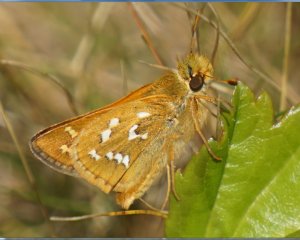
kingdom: Animalia
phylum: Arthropoda
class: Insecta
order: Lepidoptera
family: Hesperiidae
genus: Hesperia
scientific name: Hesperia comma
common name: Common Branded Skipper
